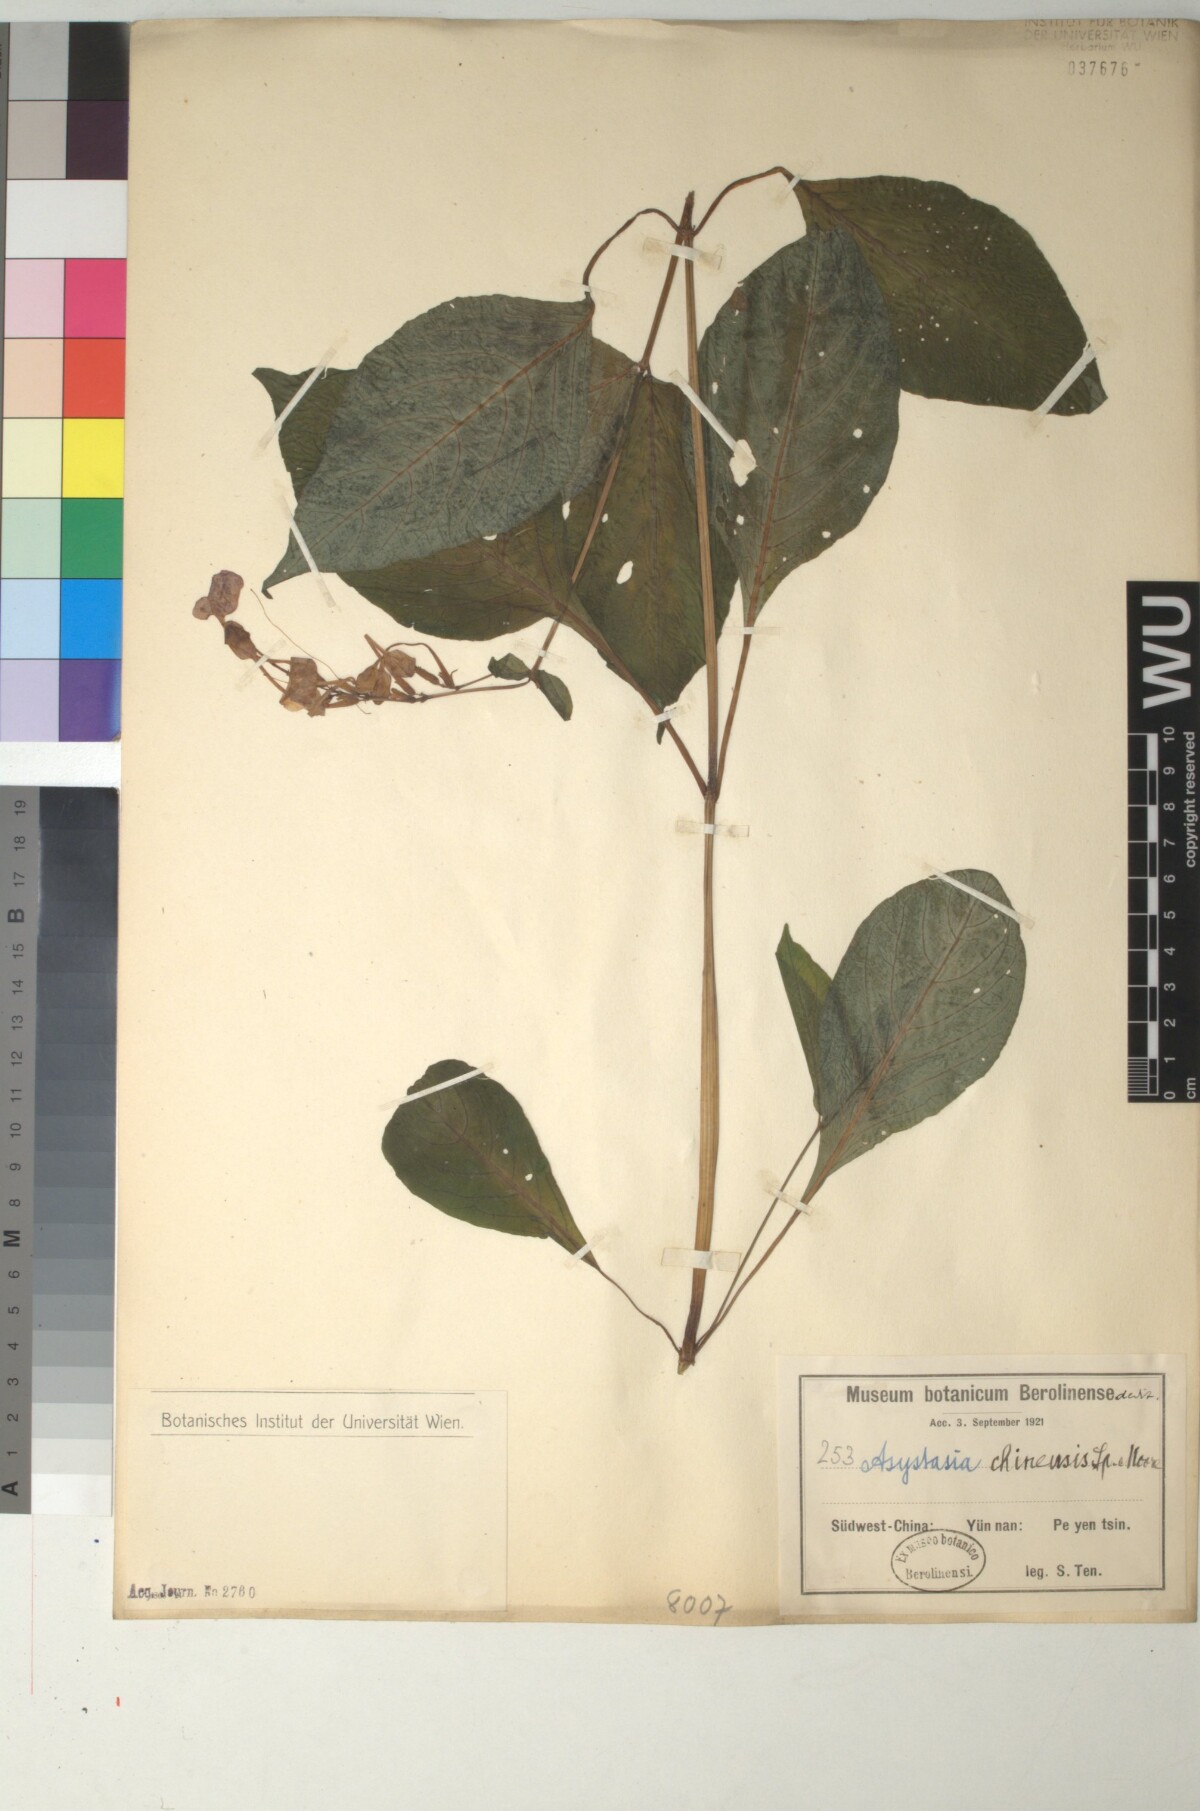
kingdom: Plantae
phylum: Tracheophyta
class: Magnoliopsida
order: Lamiales
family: Acanthaceae
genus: Mackaya
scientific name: Mackaya neesiana
